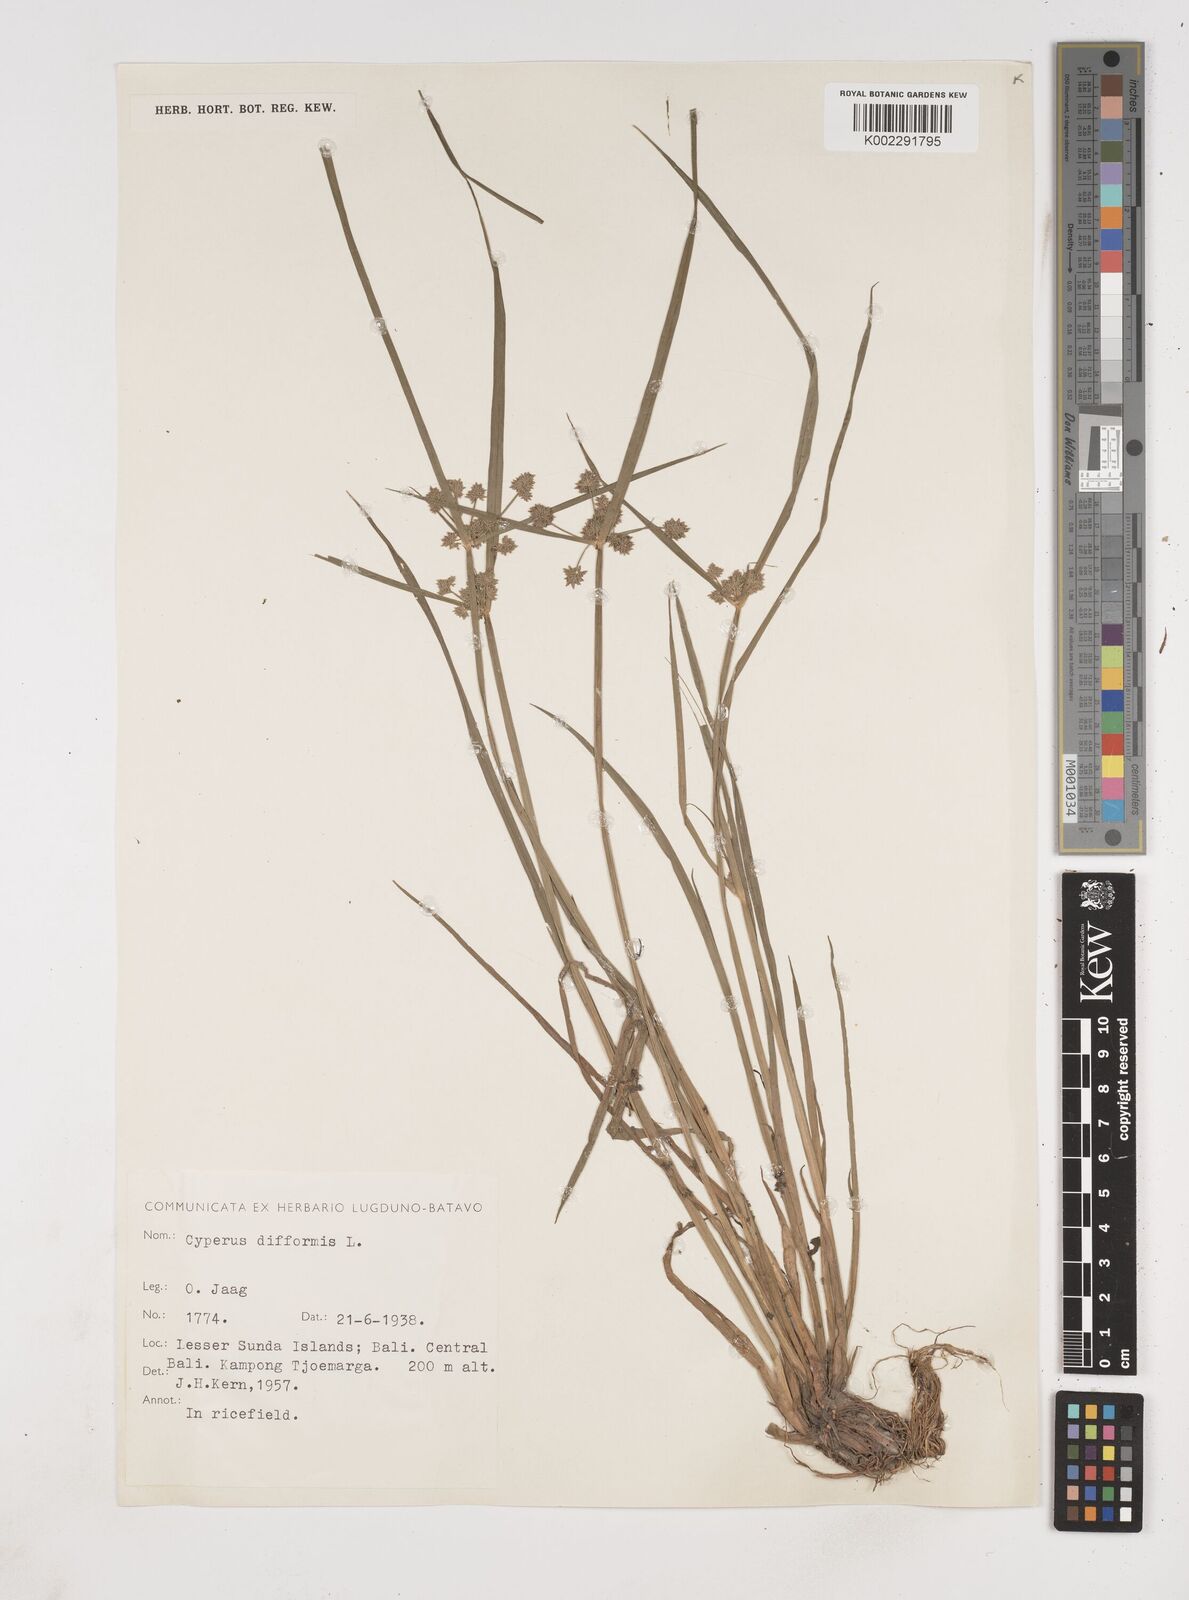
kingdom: Plantae
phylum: Tracheophyta
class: Liliopsida
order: Poales
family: Cyperaceae
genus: Cyperus
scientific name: Cyperus difformis
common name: Variable flatsedge
